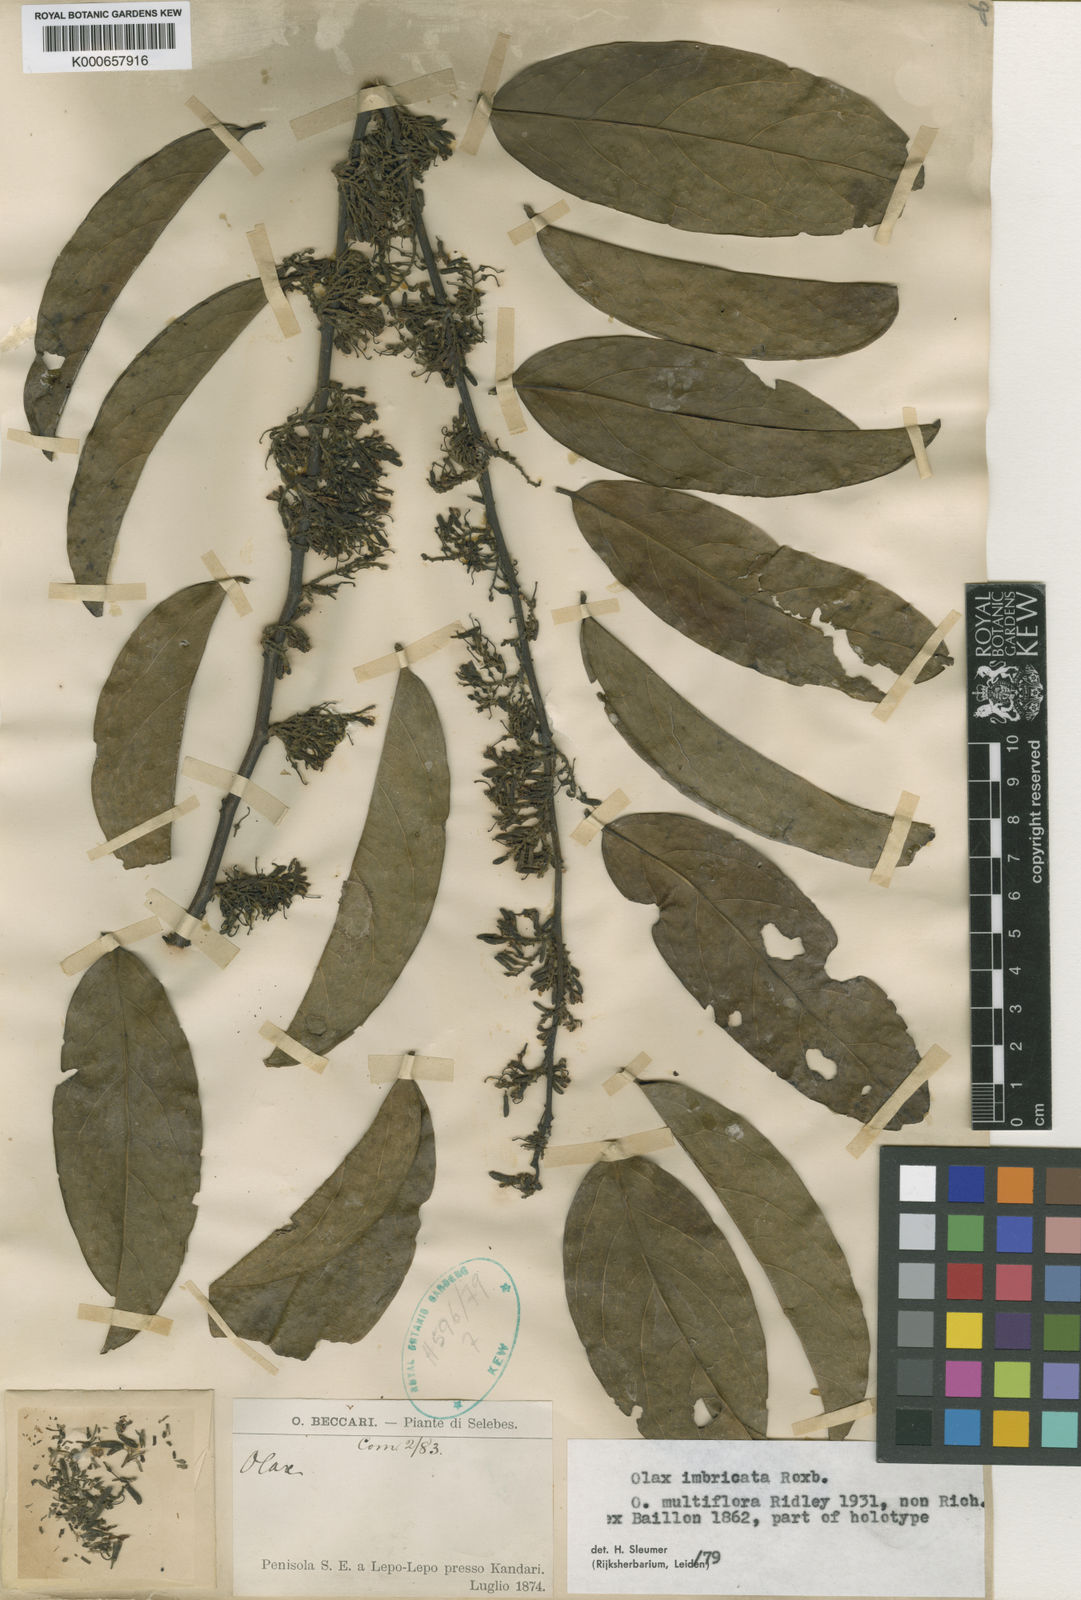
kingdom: Plantae
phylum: Tracheophyta
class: Magnoliopsida
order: Santalales
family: Olacaceae
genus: Olax
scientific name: Olax imbricata
